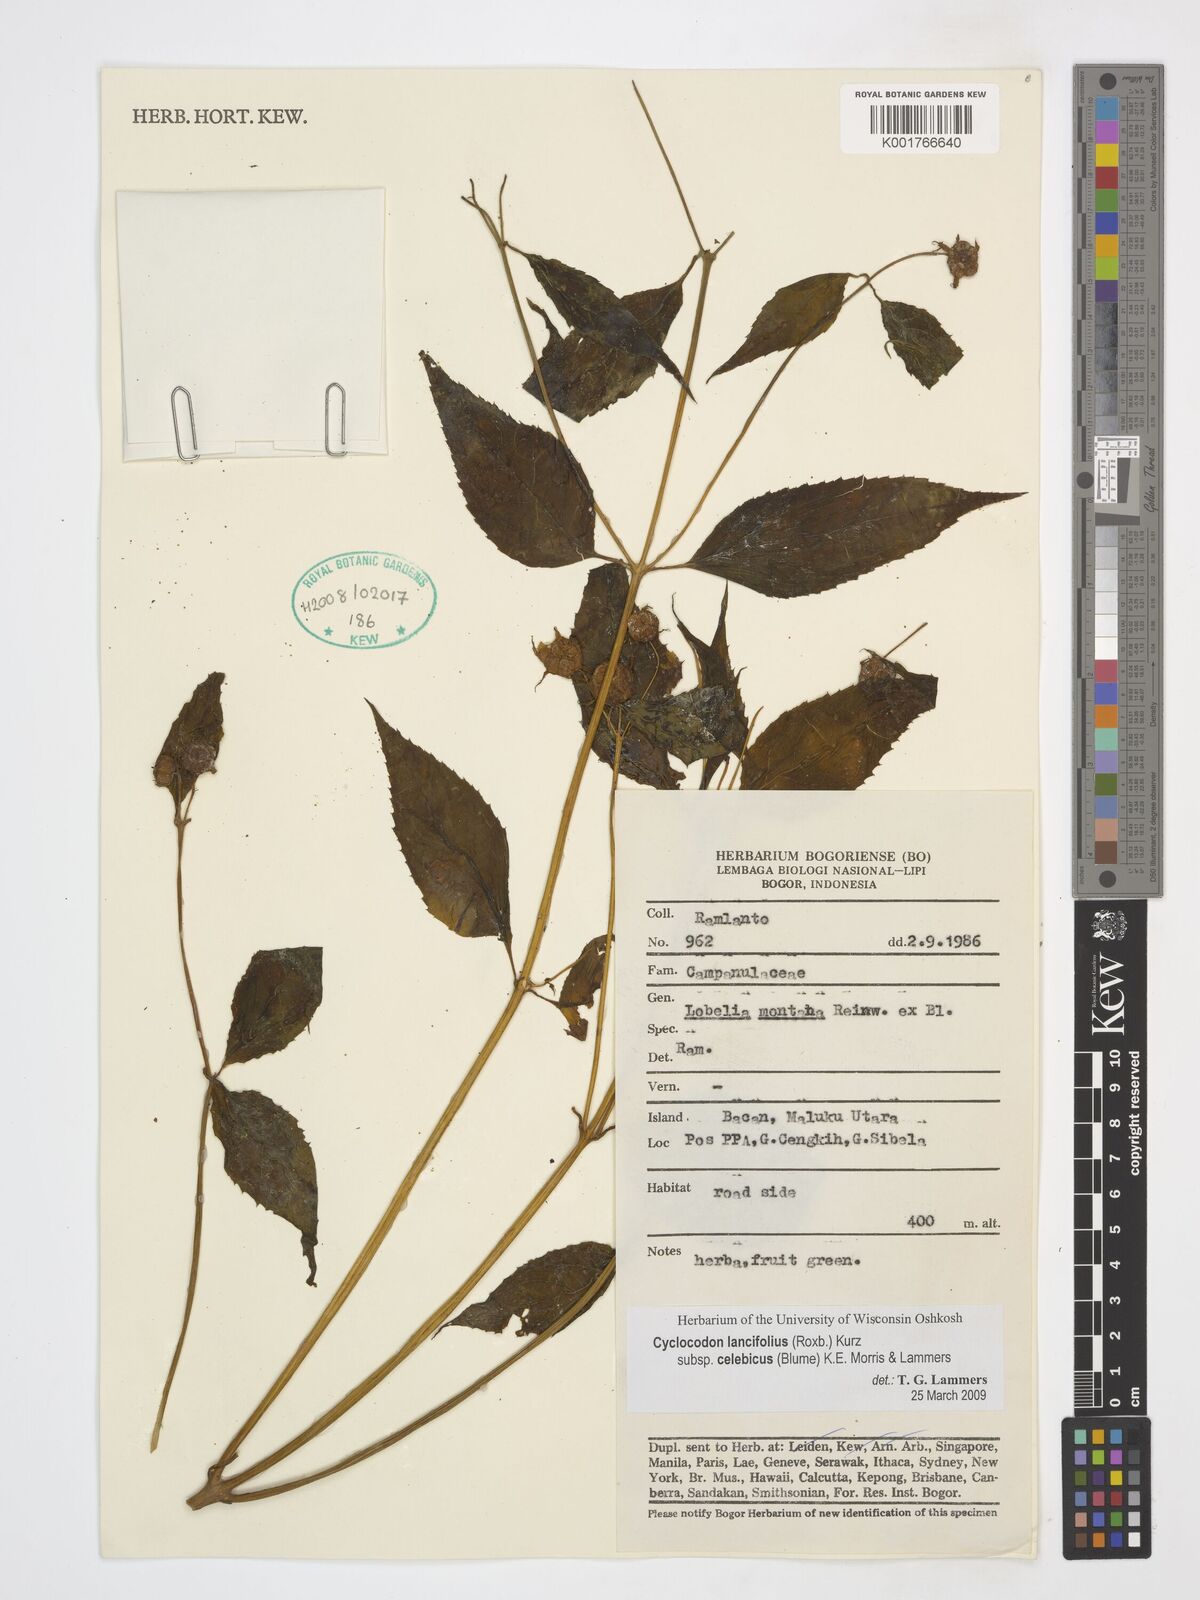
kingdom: Plantae
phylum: Tracheophyta
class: Magnoliopsida
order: Asterales
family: Campanulaceae
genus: Cyclocodon
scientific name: Cyclocodon lancifolius
